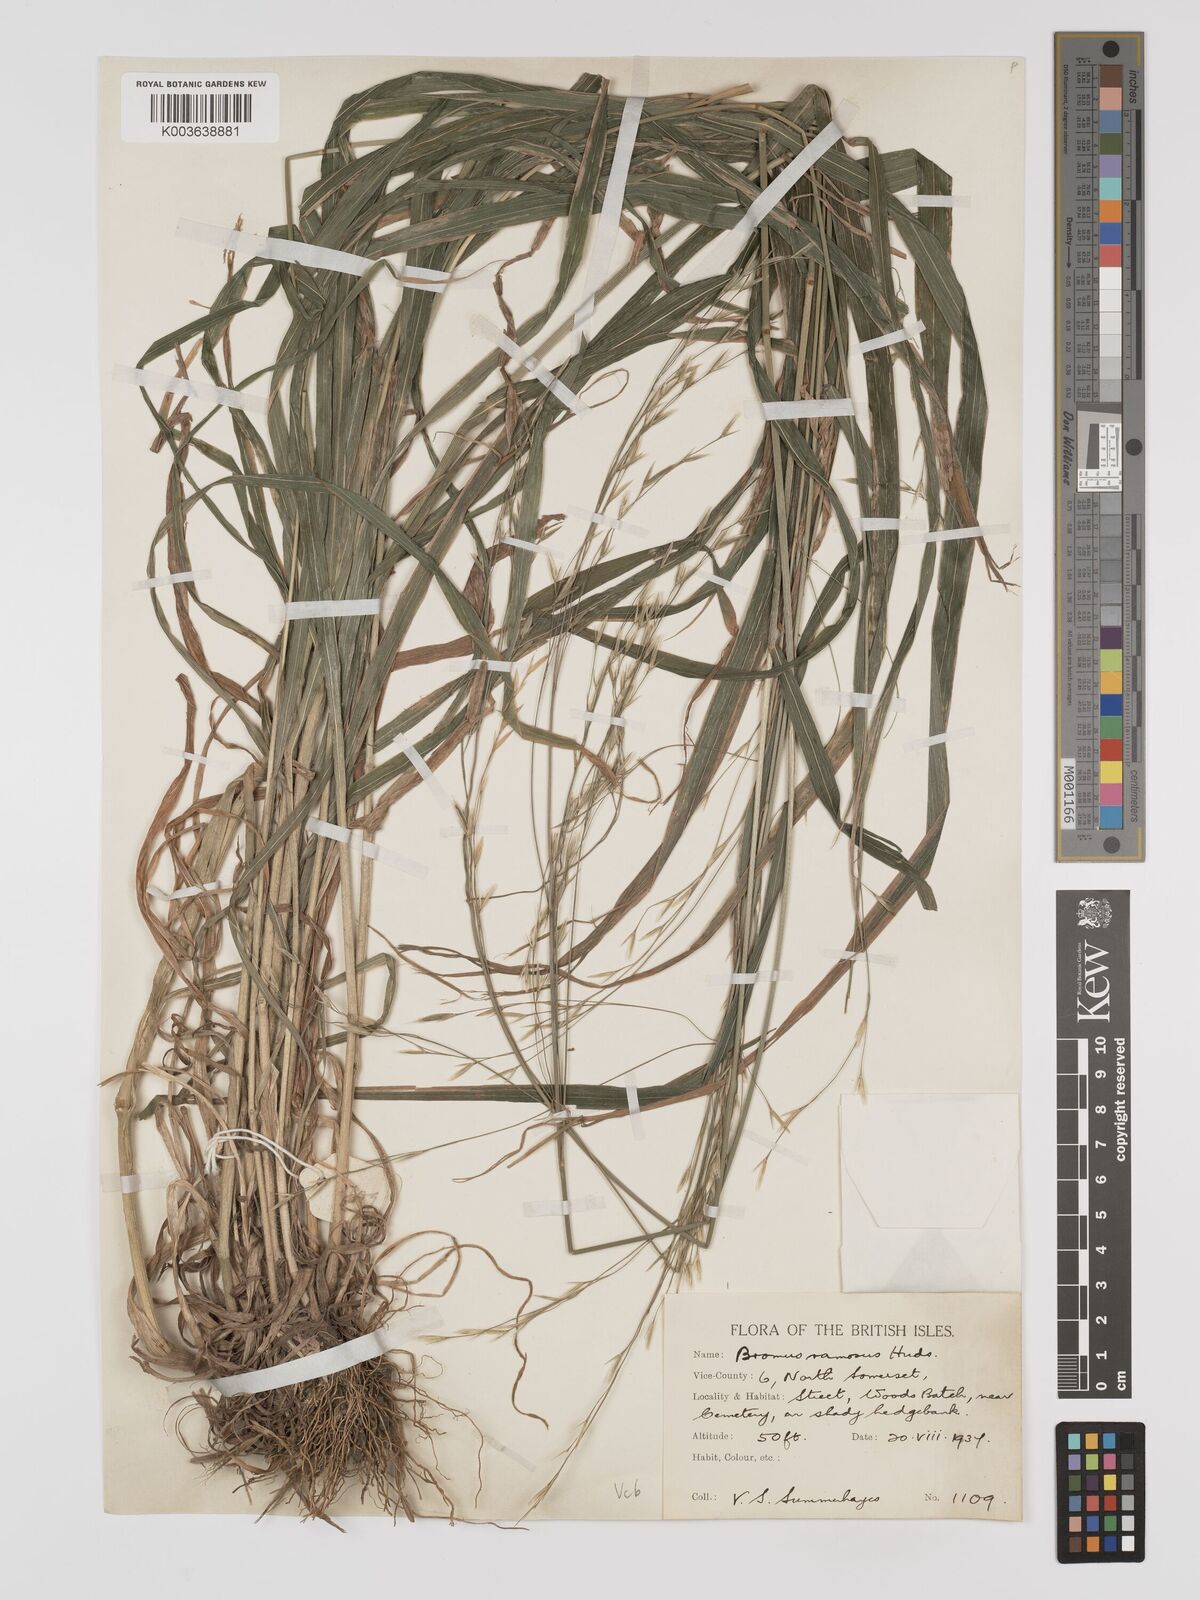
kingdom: Plantae
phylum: Tracheophyta
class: Liliopsida
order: Poales
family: Poaceae
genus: Brachypodium
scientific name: Brachypodium retusum
